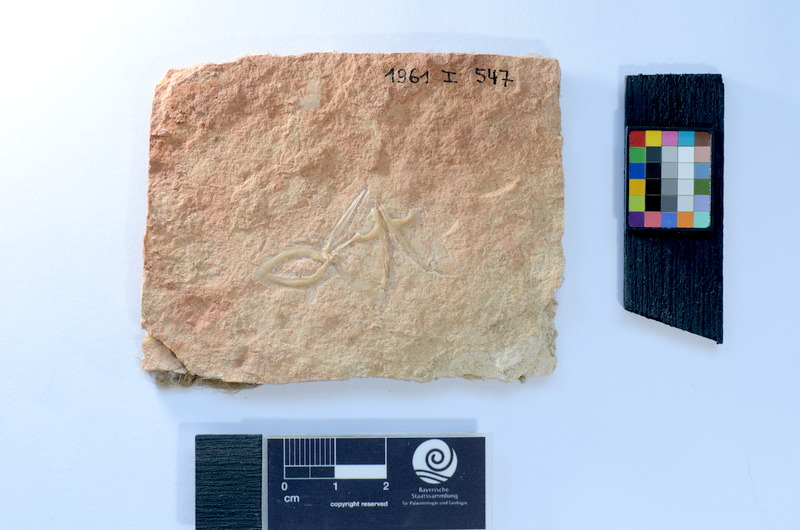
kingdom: Animalia
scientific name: Animalia
